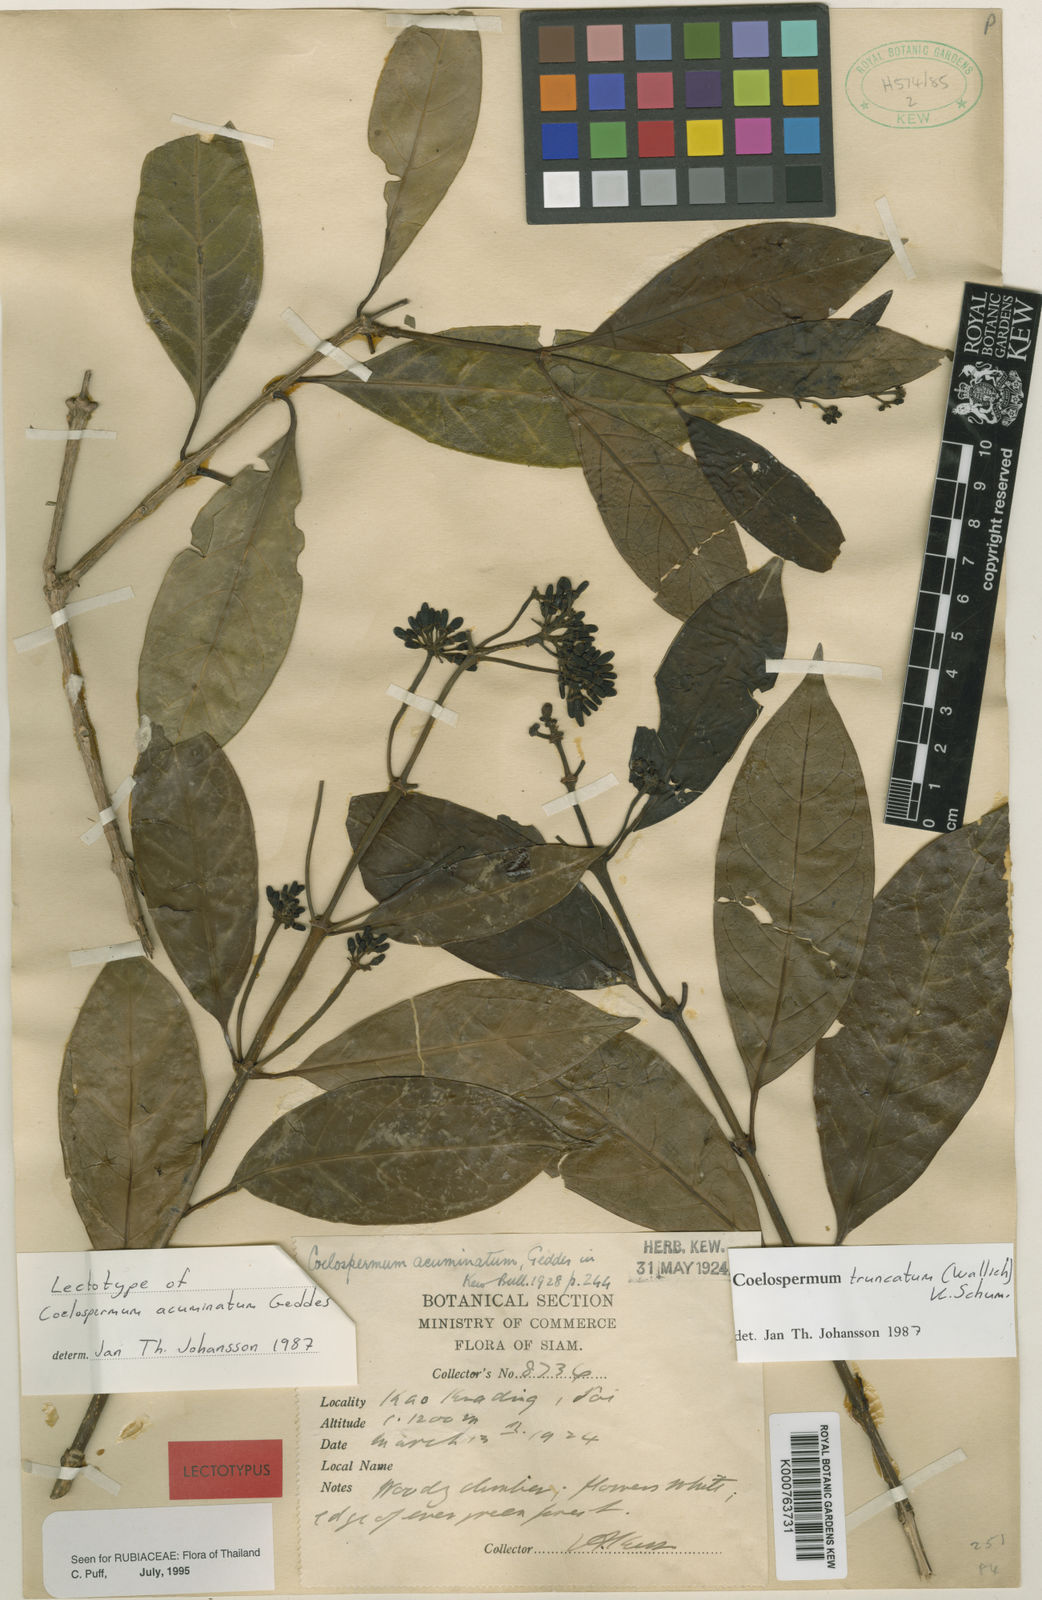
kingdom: Plantae
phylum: Tracheophyta
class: Magnoliopsida
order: Gentianales
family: Rubiaceae
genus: Coelospermum
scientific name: Coelospermum truncatum
